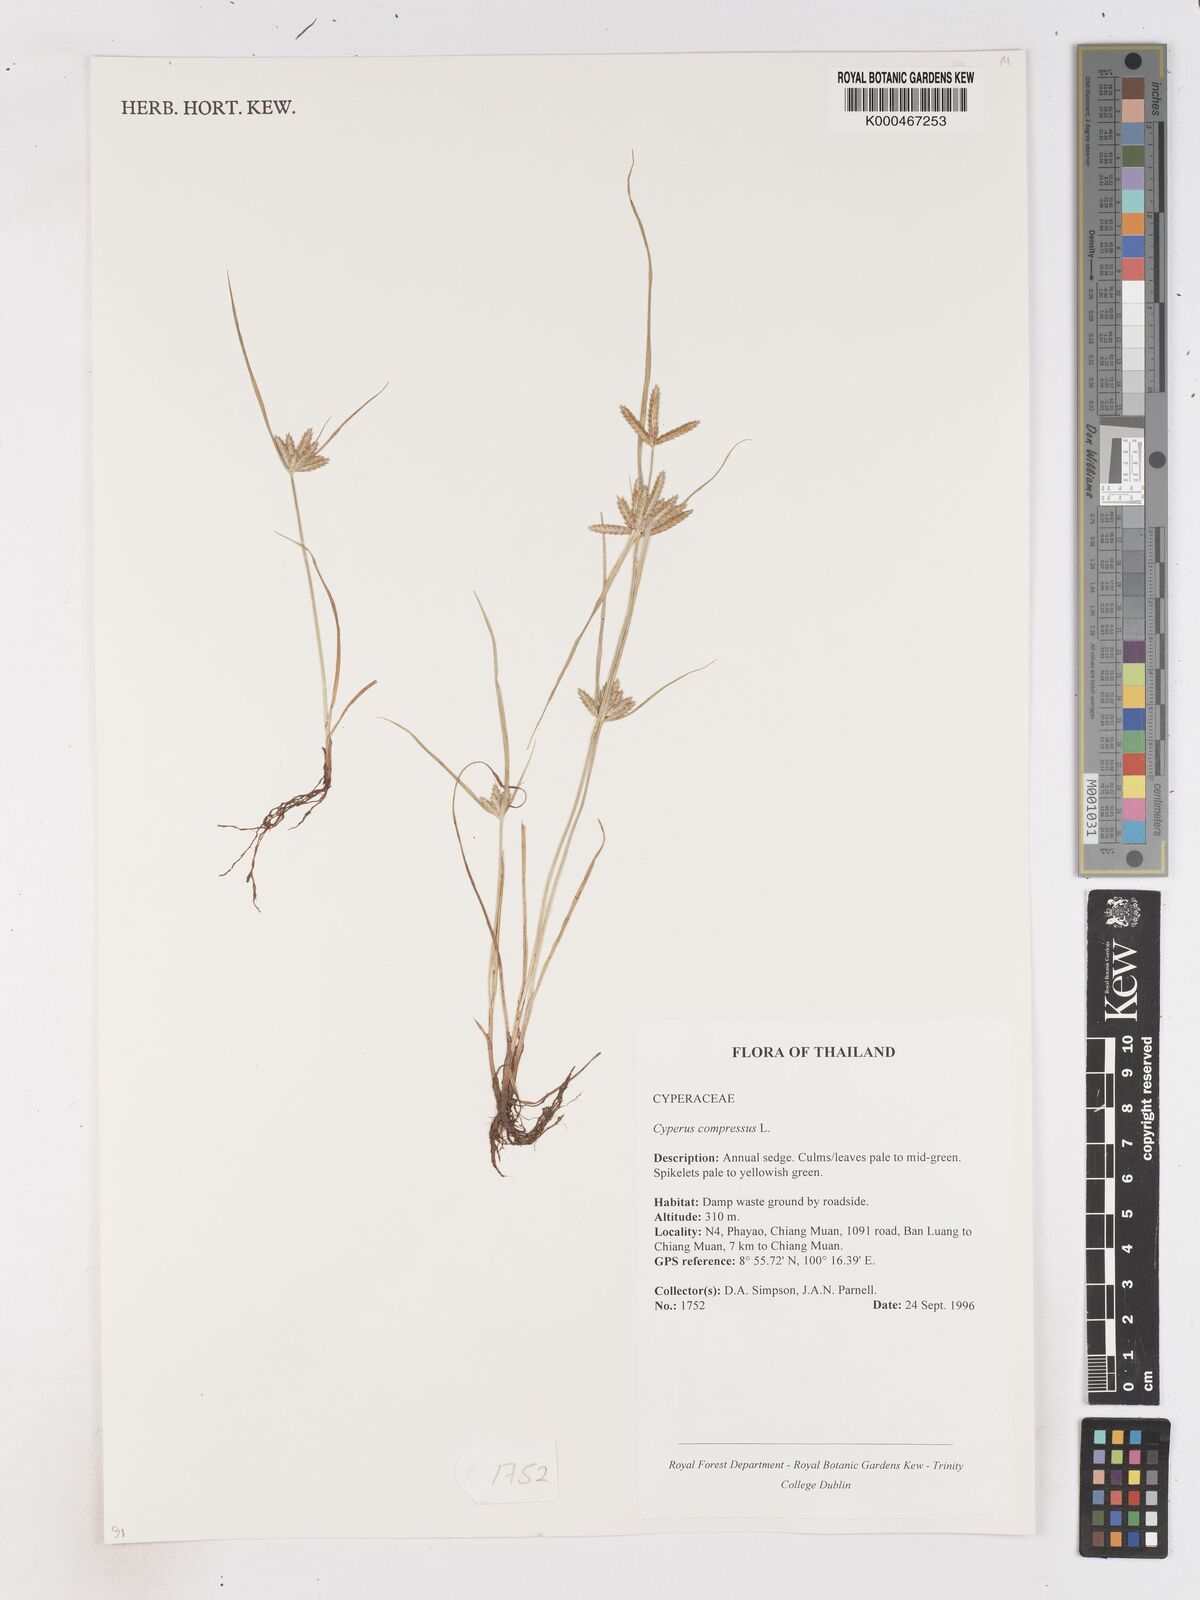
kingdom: Plantae
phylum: Tracheophyta
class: Liliopsida
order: Poales
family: Cyperaceae
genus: Cyperus
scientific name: Cyperus compressus
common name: Poorland flatsedge
